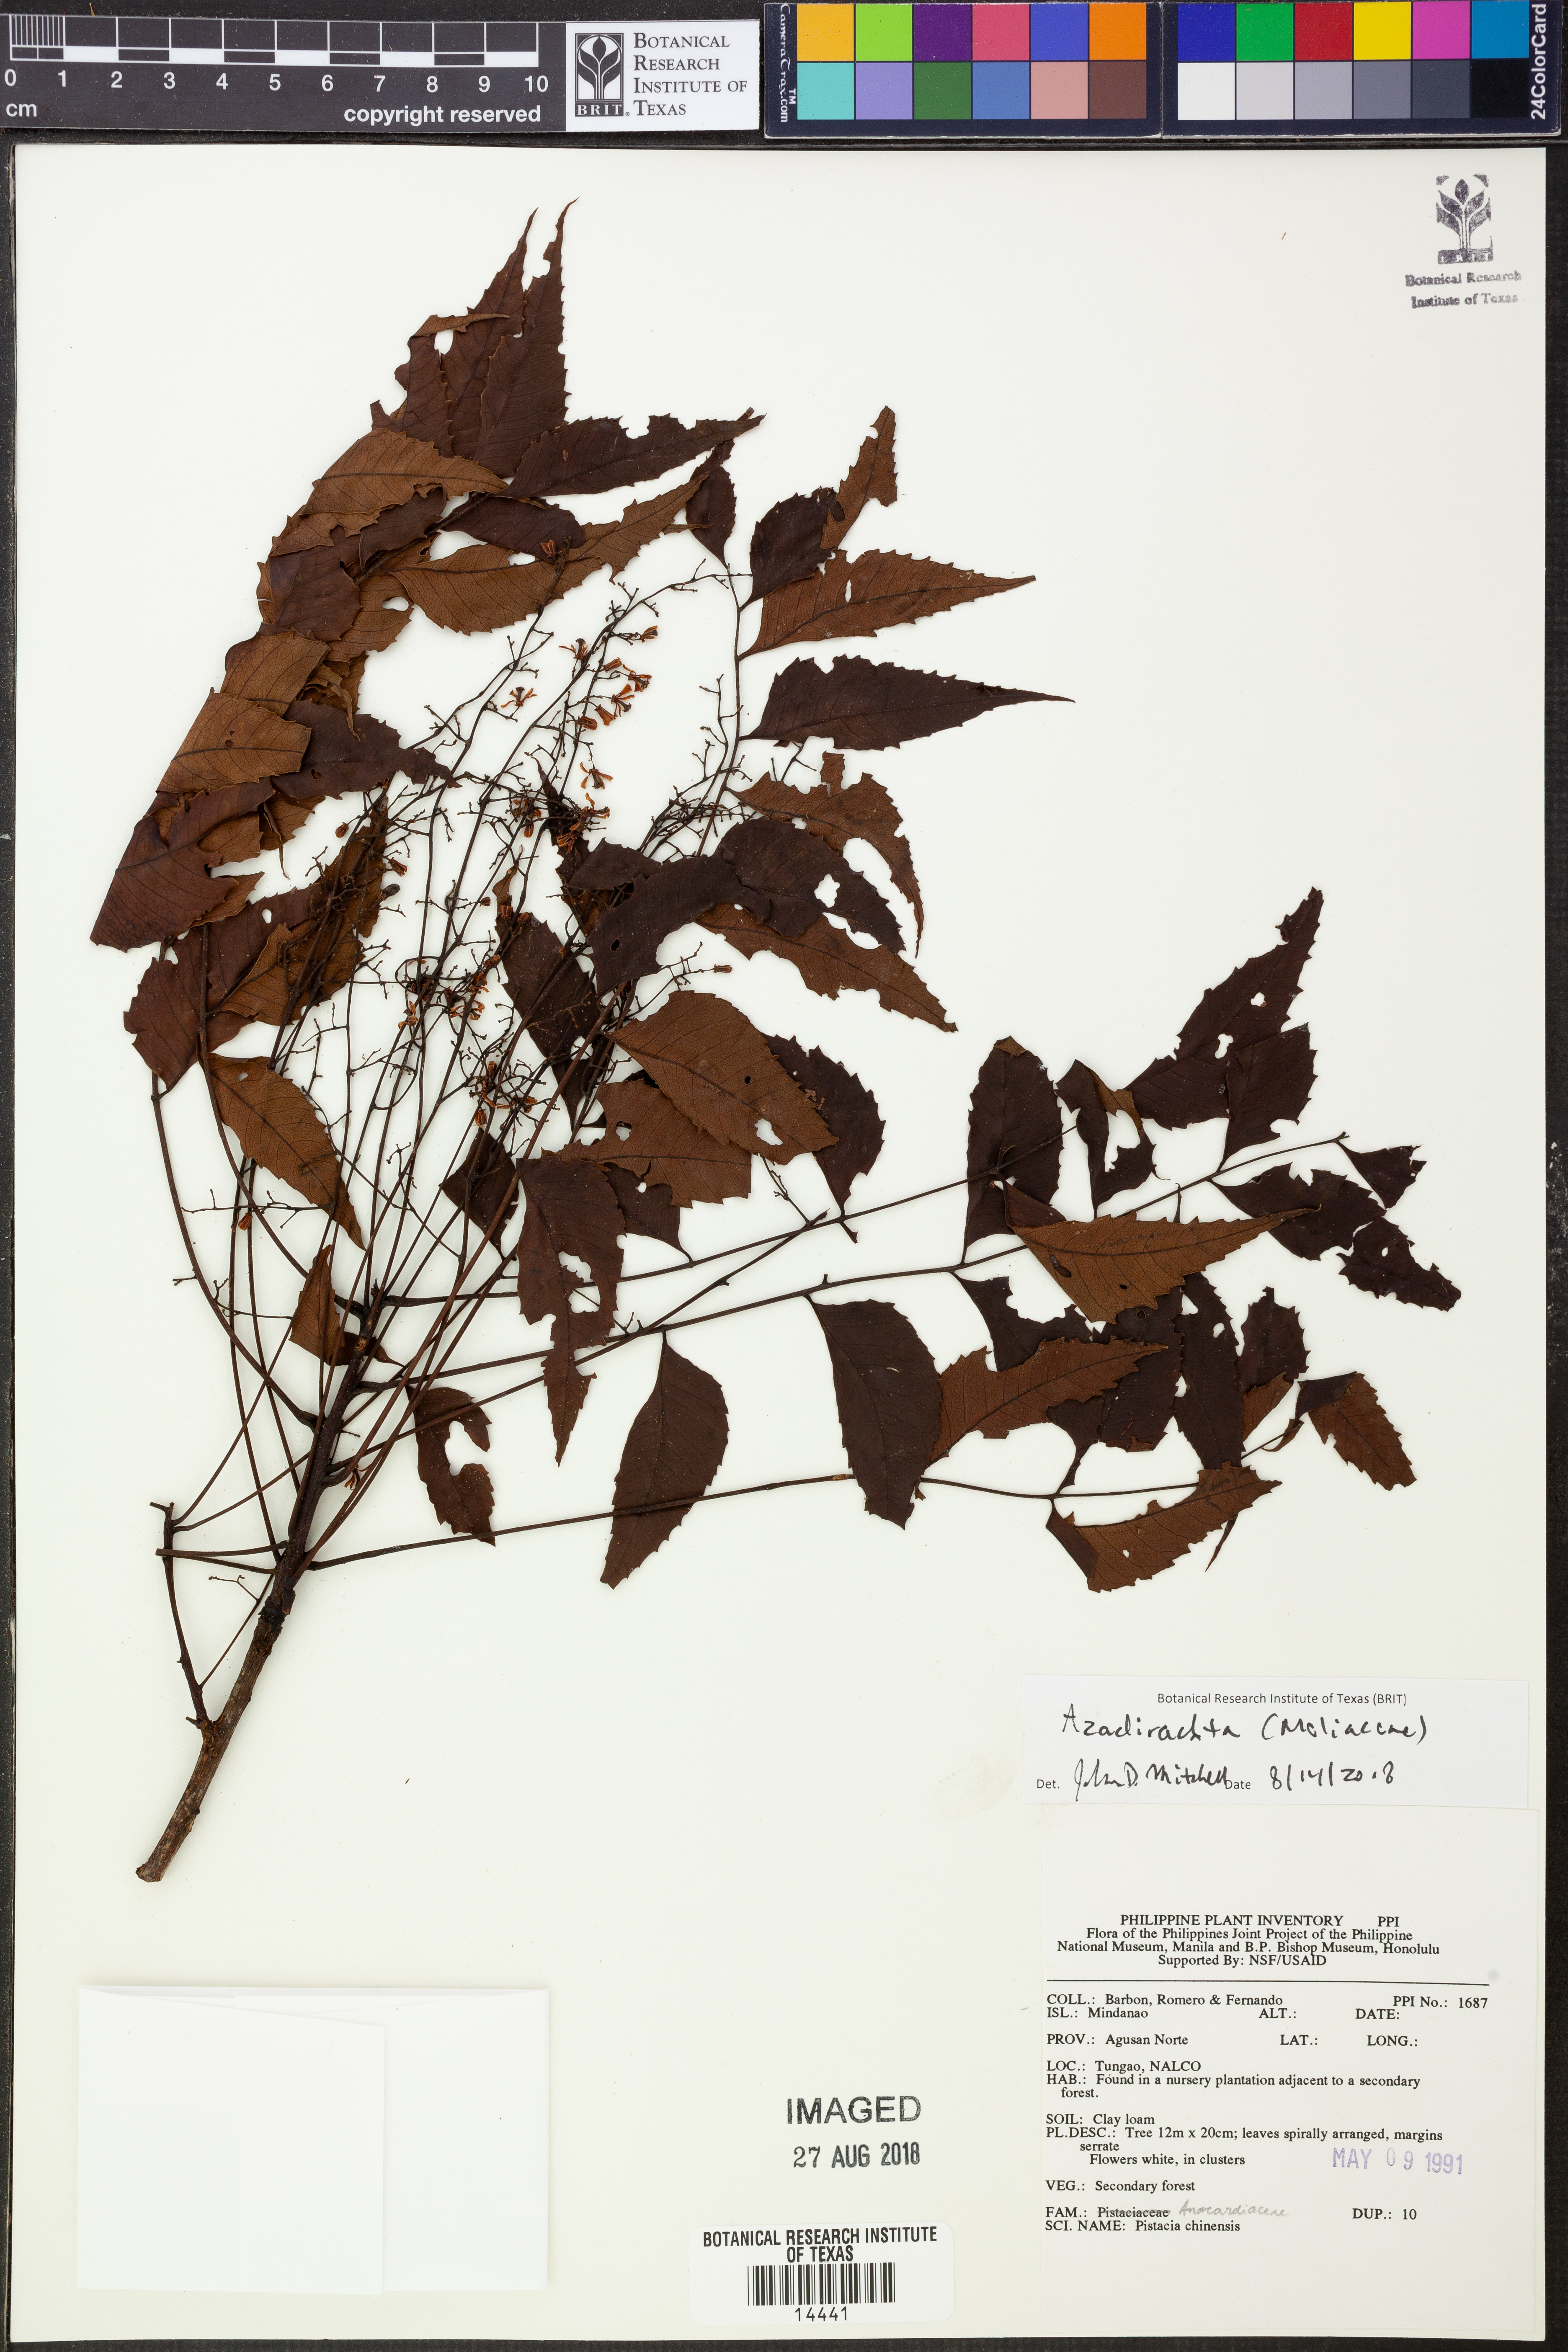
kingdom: Plantae
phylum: Tracheophyta
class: Magnoliopsida
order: Sapindales
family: Meliaceae
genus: Azadirachta
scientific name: Azadirachta
